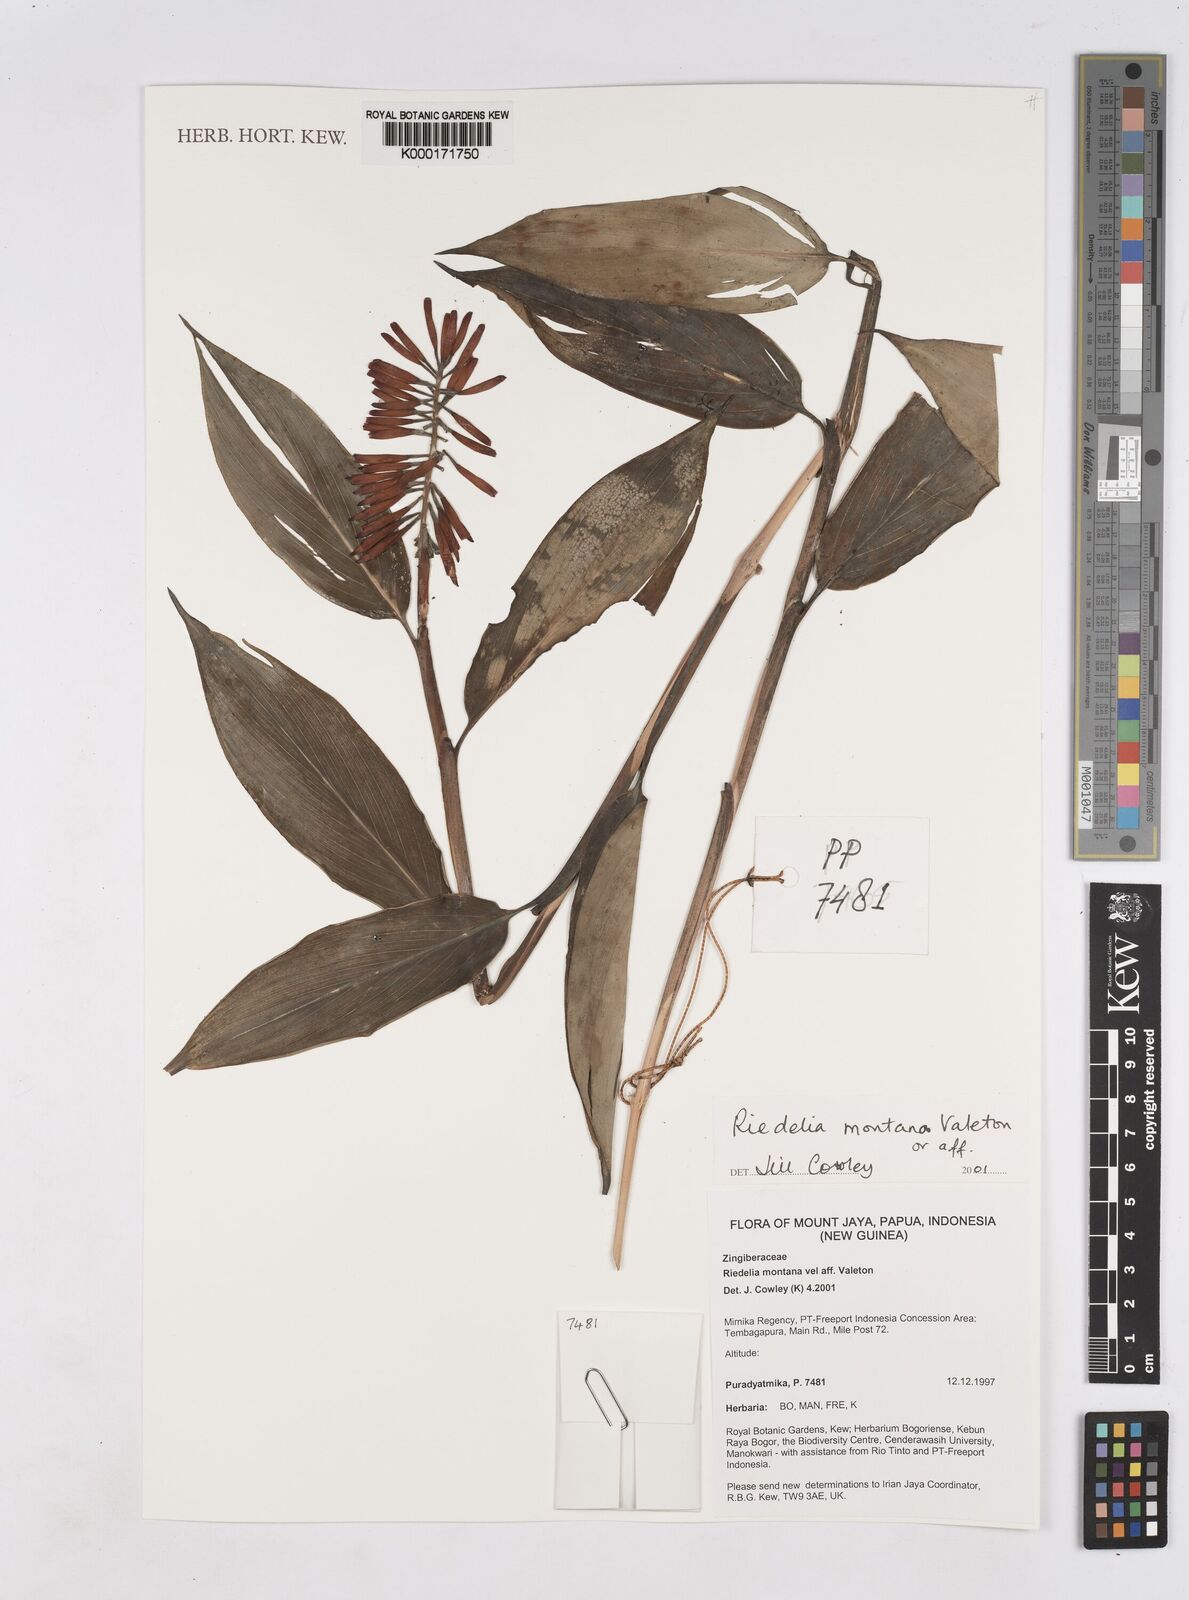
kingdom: Plantae
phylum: Tracheophyta
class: Liliopsida
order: Zingiberales
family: Zingiberaceae
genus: Riedelia
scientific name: Riedelia montana
